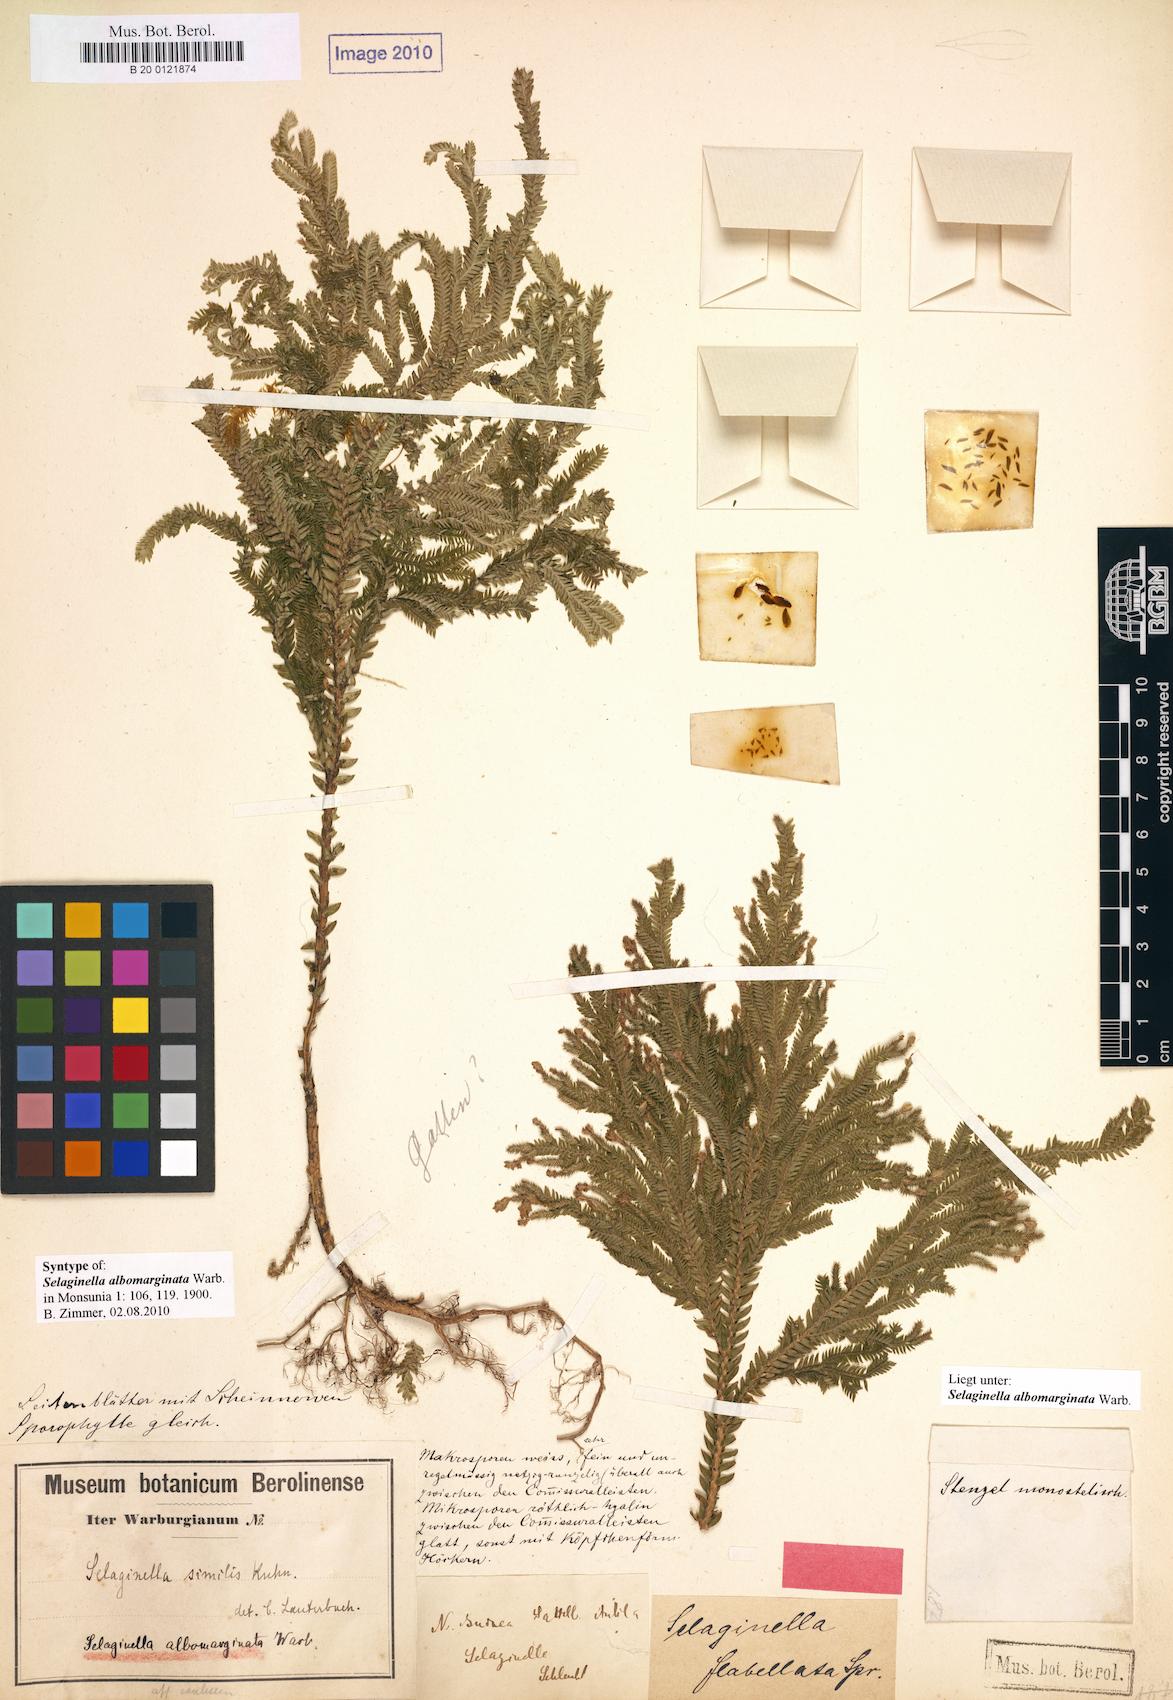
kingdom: Plantae
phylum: Tracheophyta
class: Lycopodiopsida
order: Selaginellales
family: Selaginellaceae
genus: Selaginella
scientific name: Selaginella
